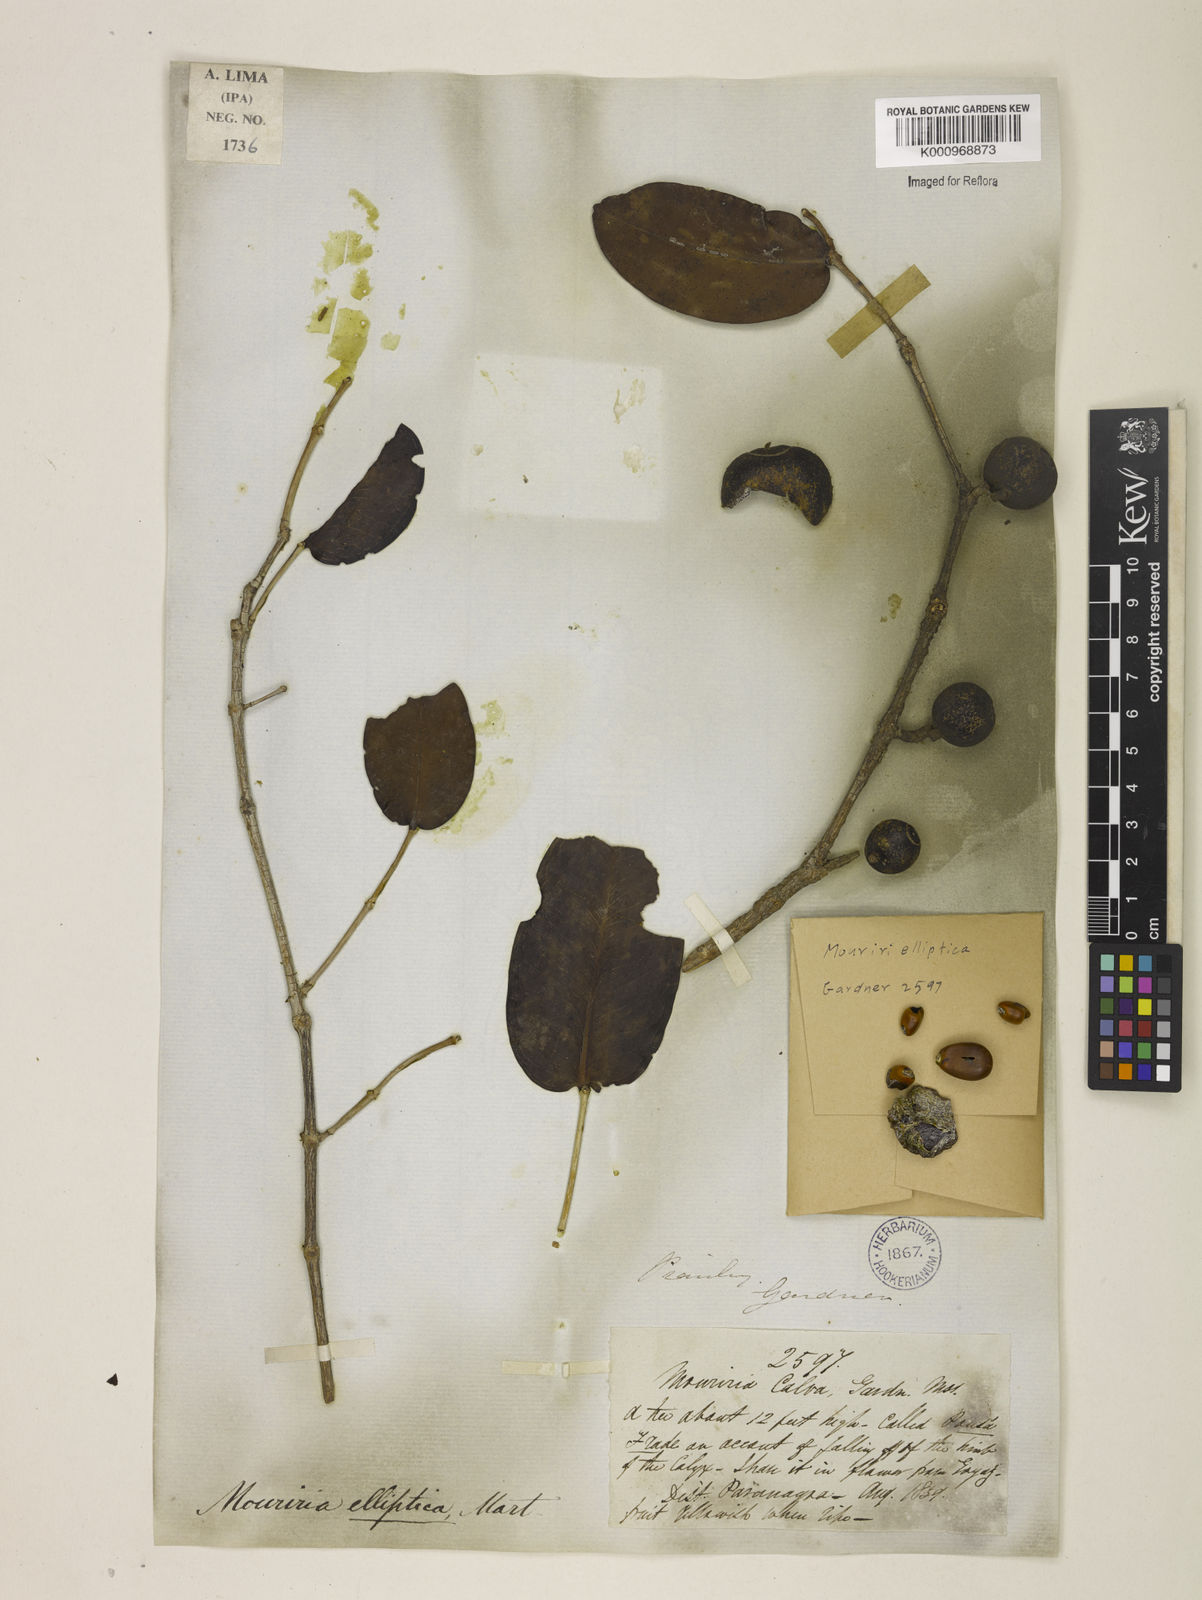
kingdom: Plantae
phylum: Tracheophyta
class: Magnoliopsida
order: Myrtales
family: Melastomataceae
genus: Mouriri
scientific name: Mouriri elliptica
